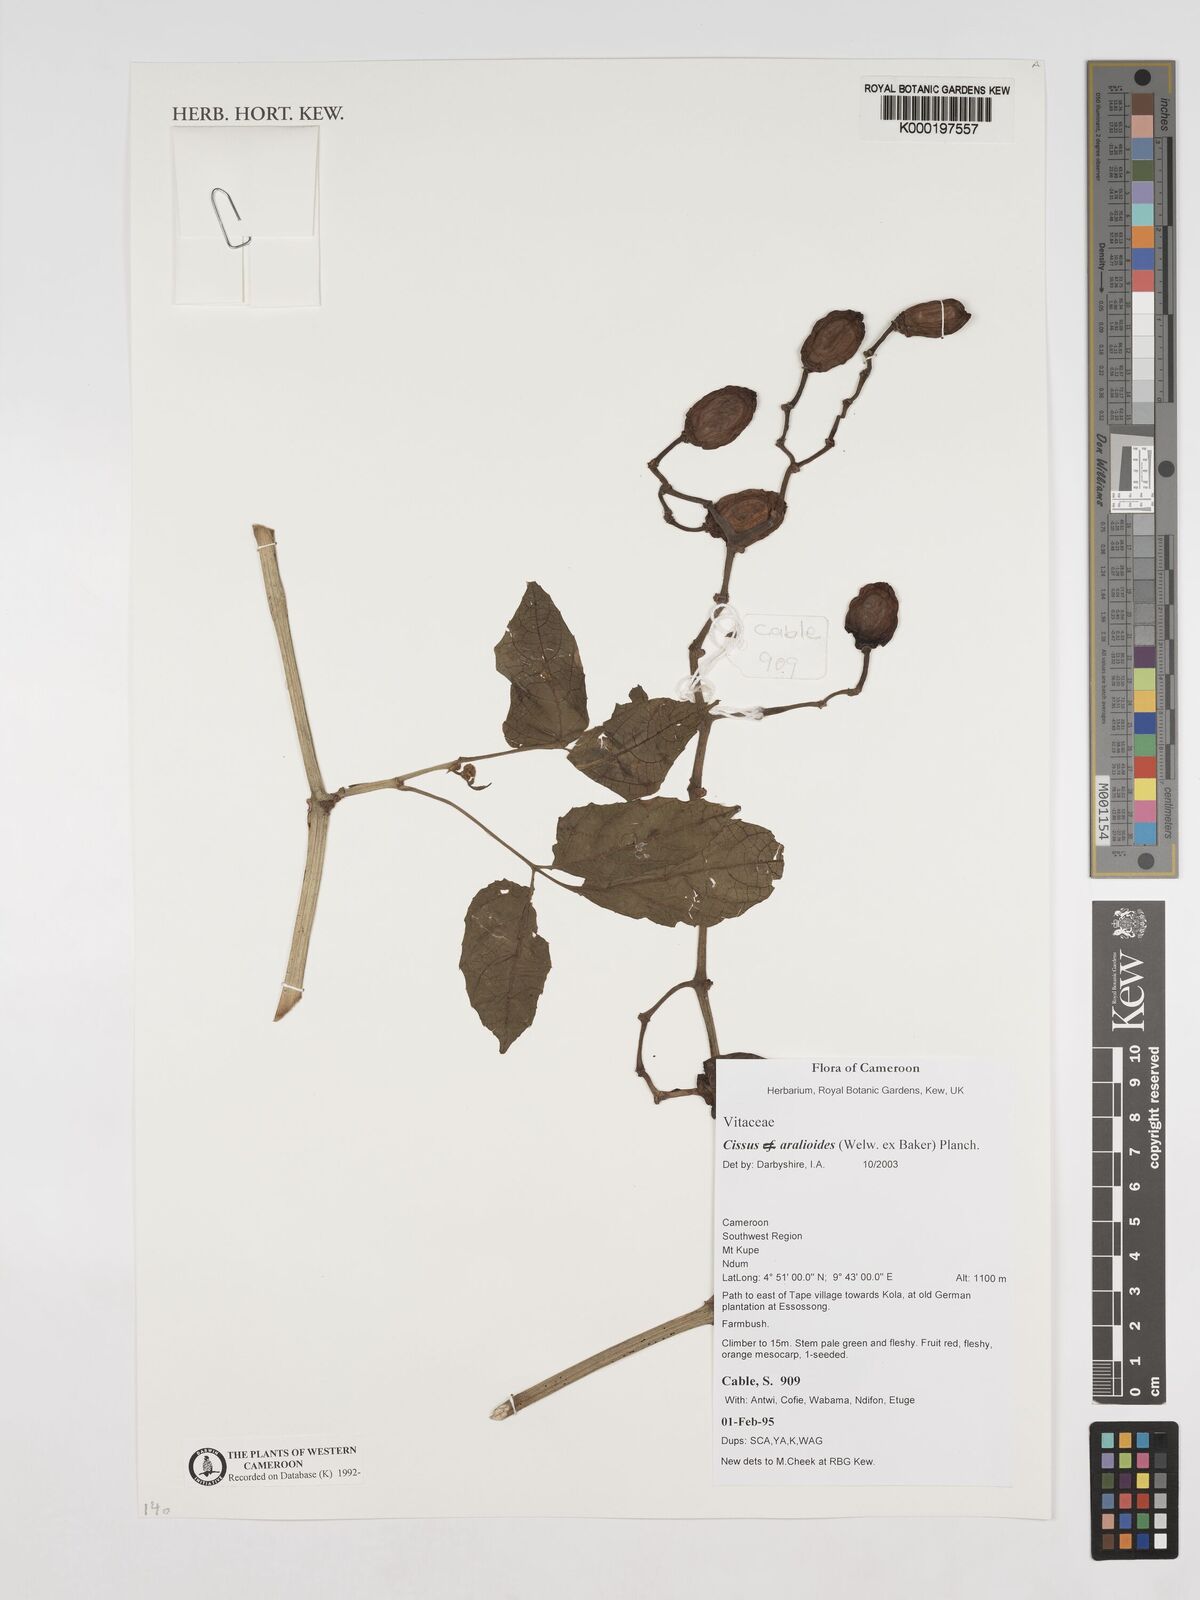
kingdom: Plantae
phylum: Tracheophyta
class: Magnoliopsida
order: Vitales
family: Vitaceae
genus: Cissus
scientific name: Cissus aralioides
